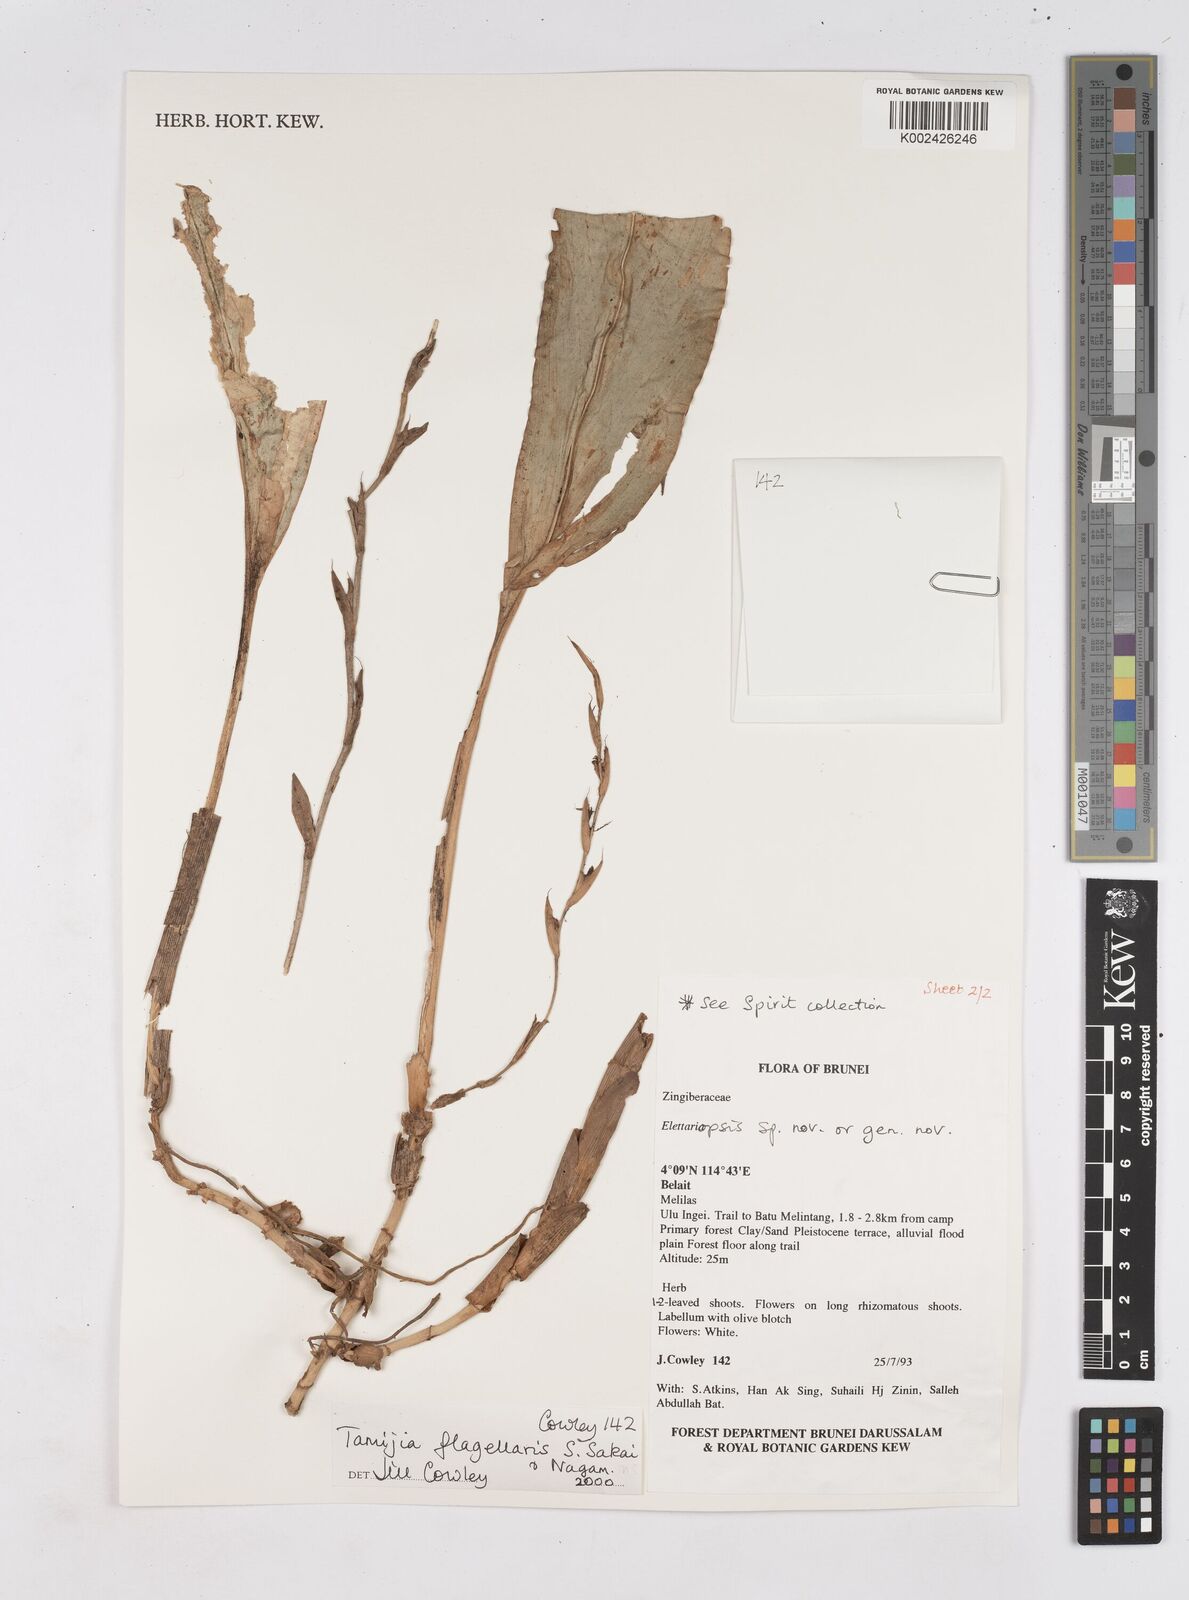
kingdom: Plantae
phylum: Tracheophyta
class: Liliopsida
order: Zingiberales
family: Zingiberaceae
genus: Tamijia
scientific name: Tamijia flagellaris
